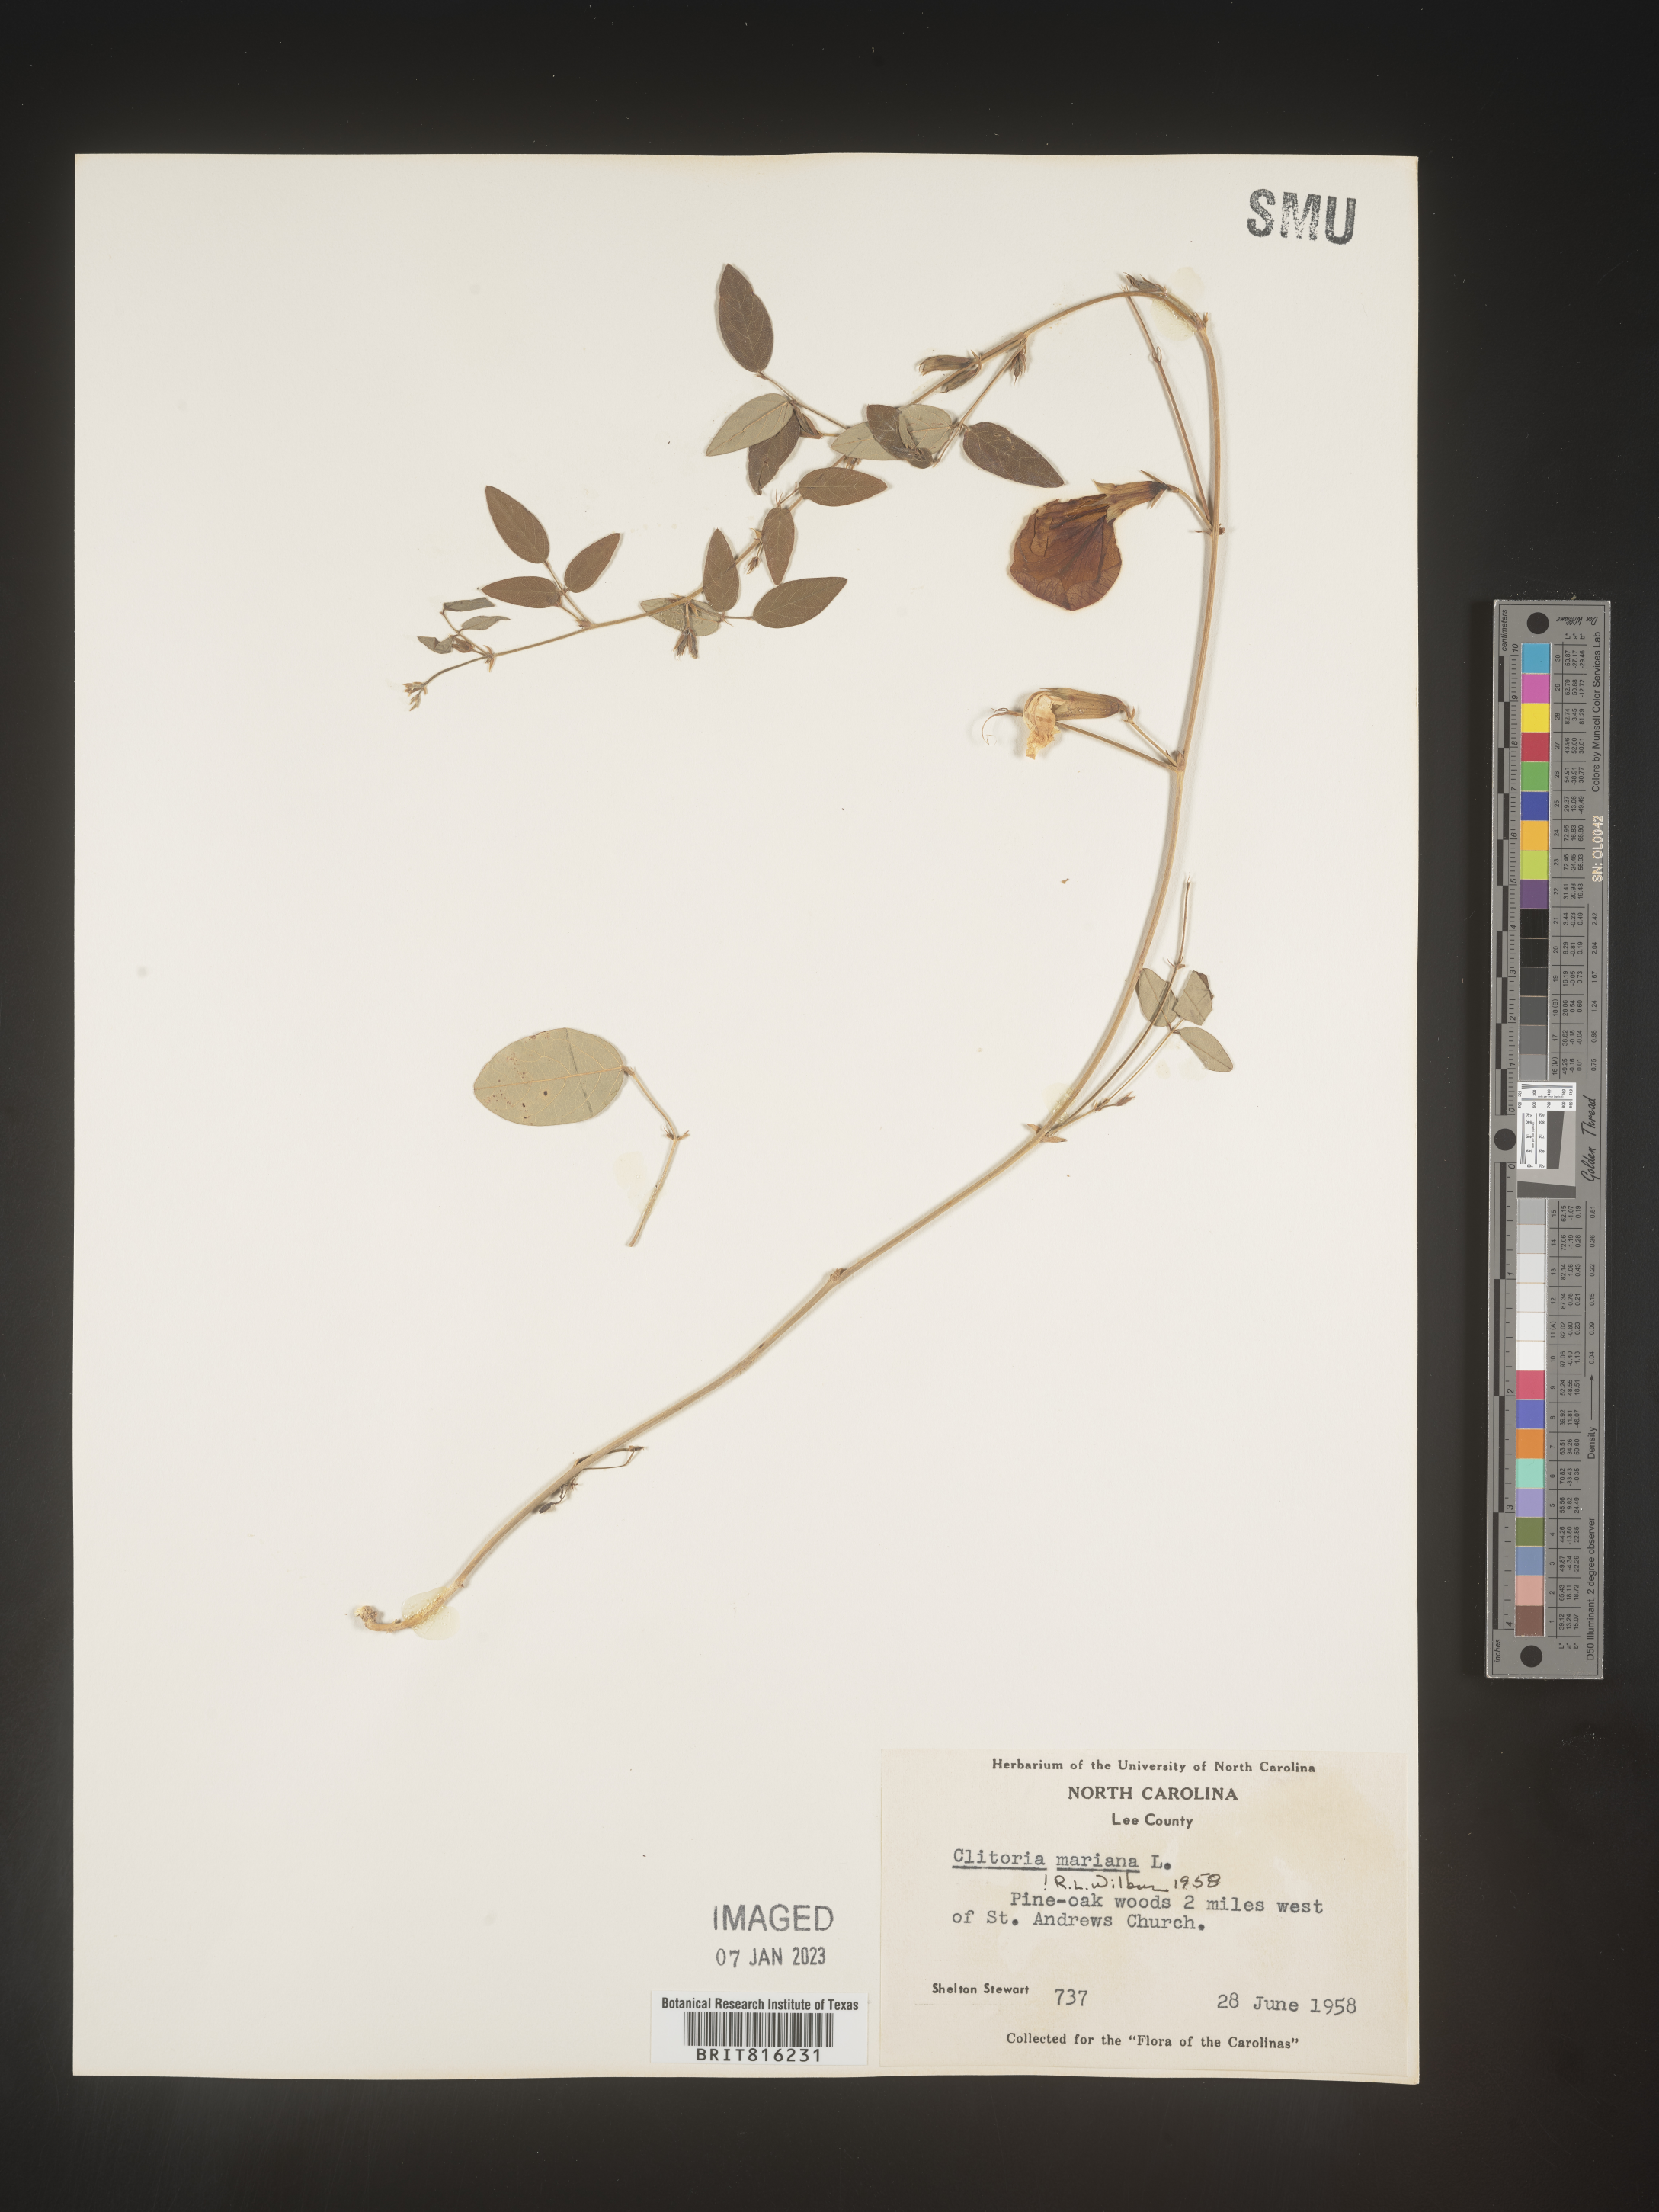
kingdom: Plantae
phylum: Tracheophyta
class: Magnoliopsida
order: Fabales
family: Fabaceae
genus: Clitoria
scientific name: Clitoria mariana
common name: Butterfly-pea
